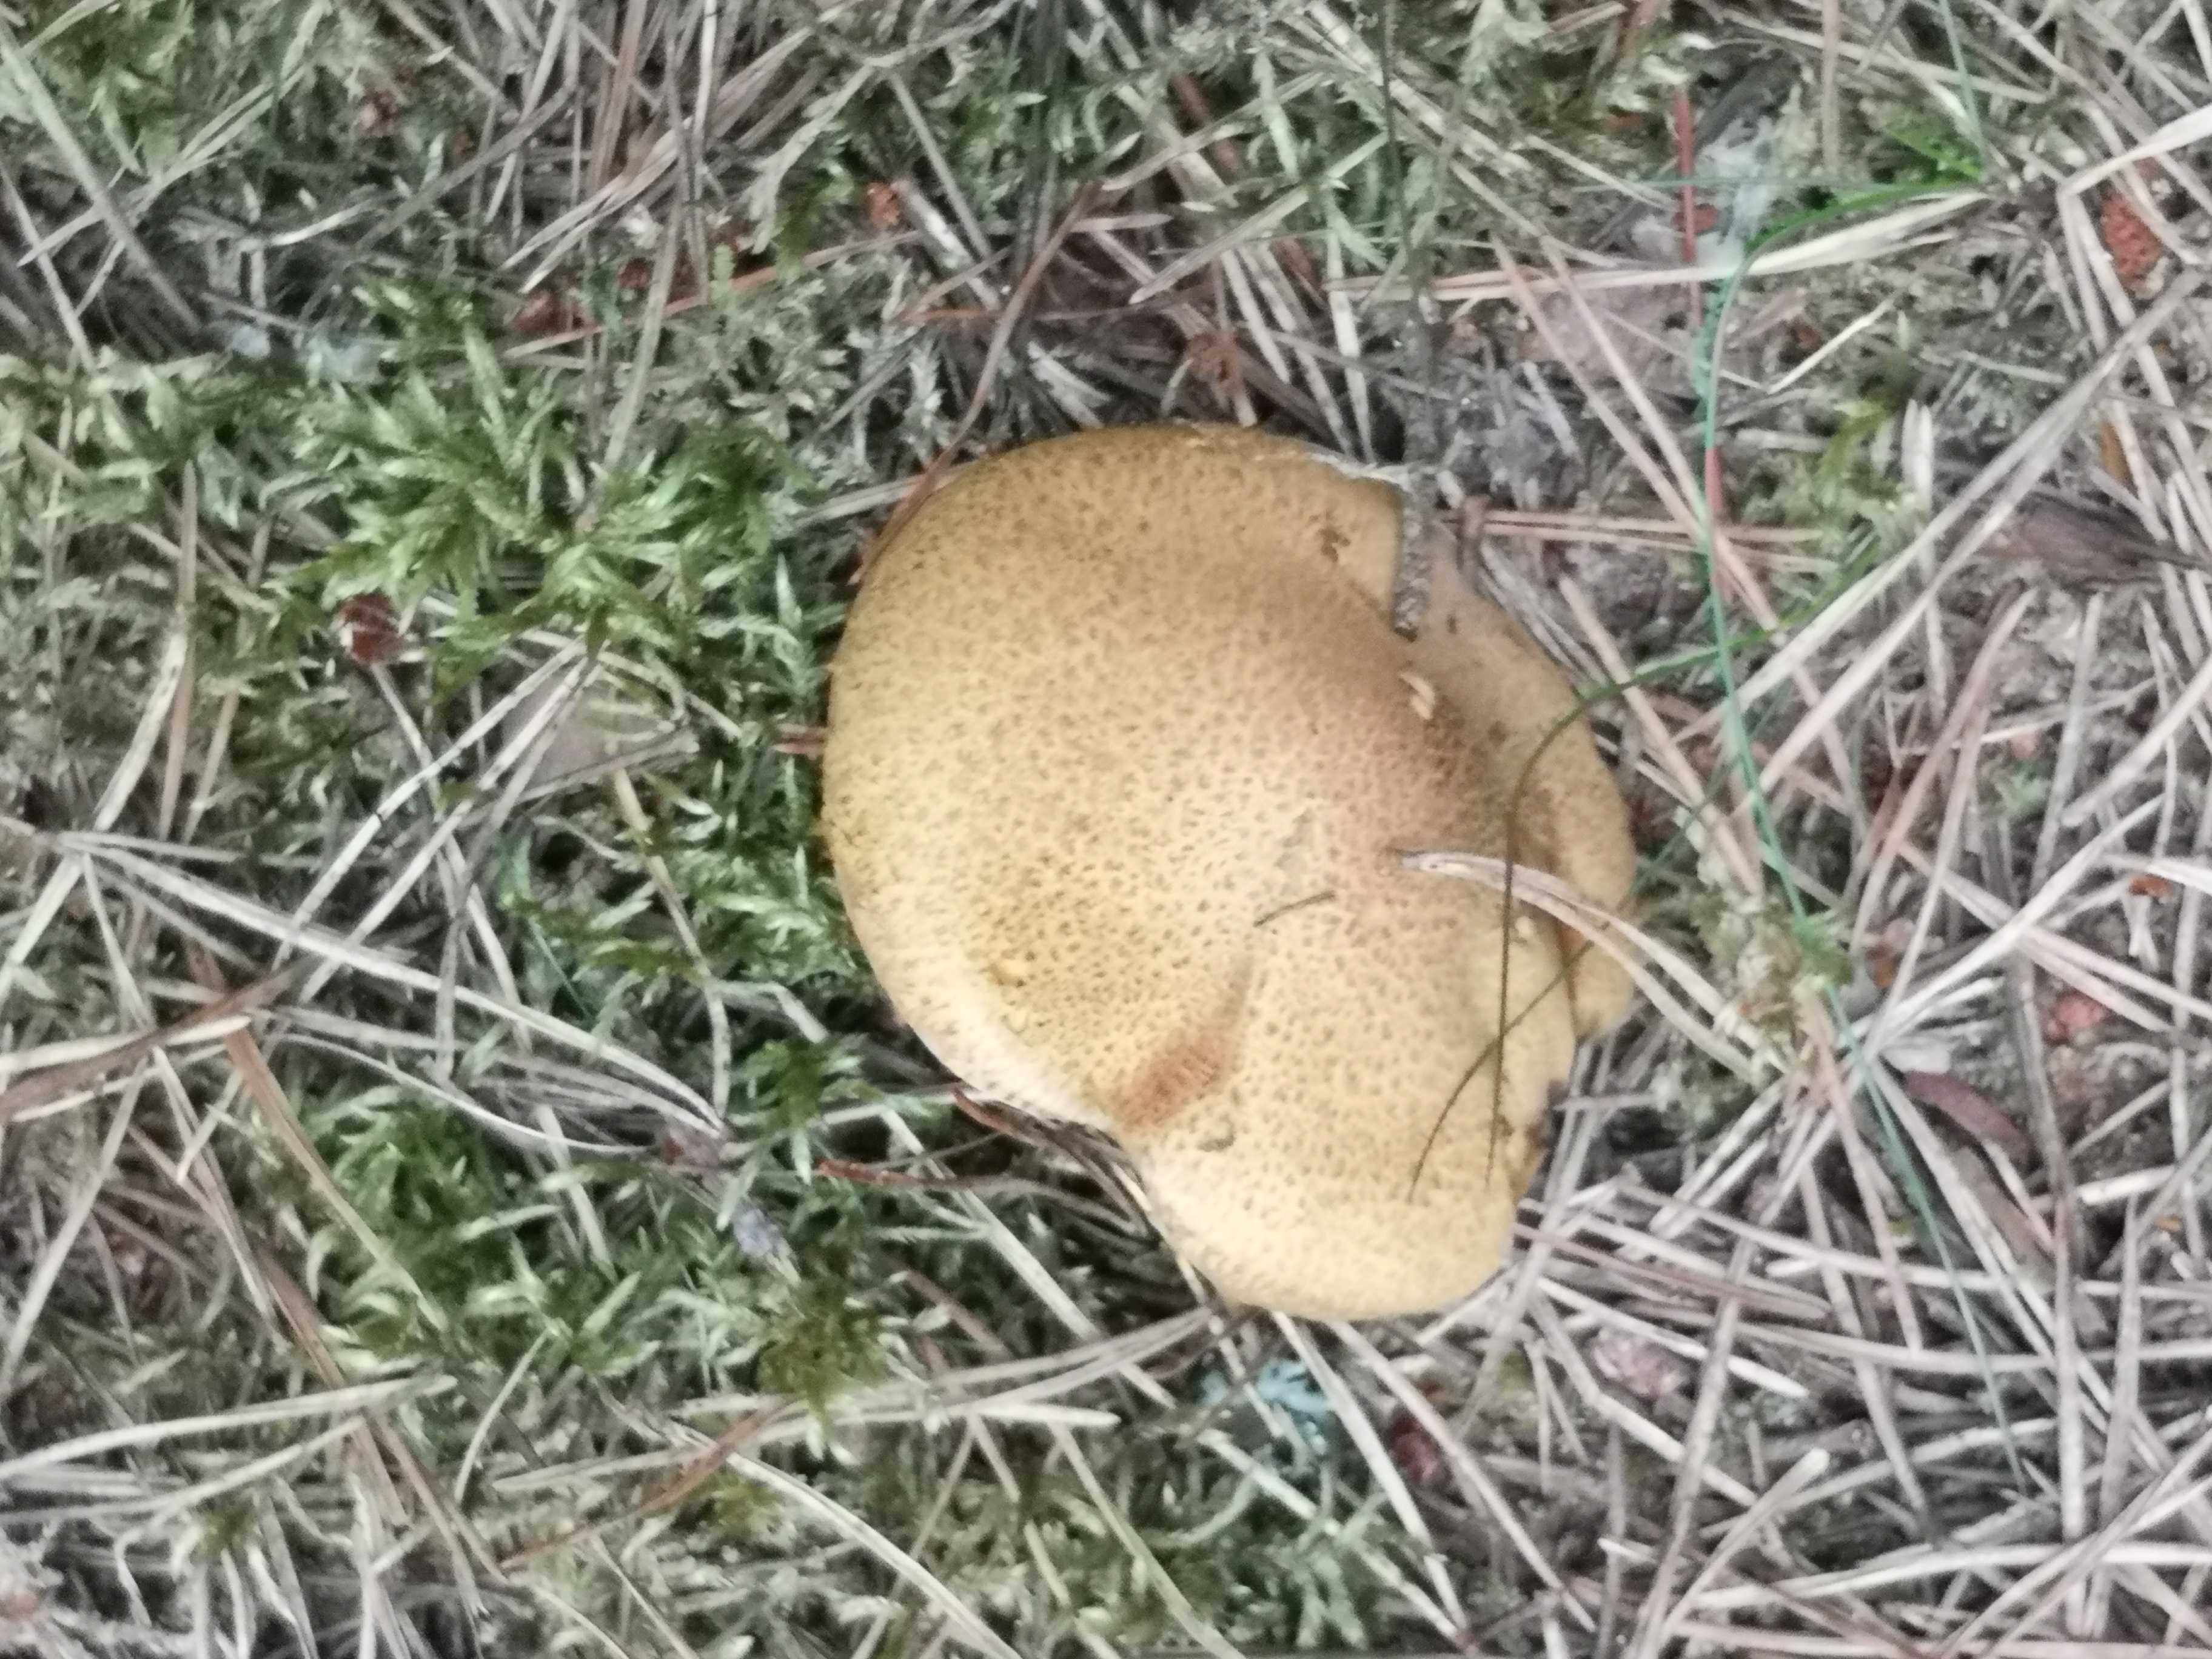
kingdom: Fungi
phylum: Basidiomycota
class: Agaricomycetes
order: Boletales
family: Suillaceae
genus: Suillus
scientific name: Suillus variegatus
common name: broget slimrørhat
